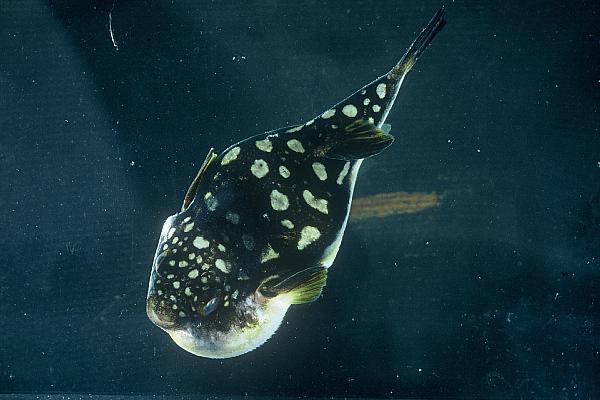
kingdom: Animalia
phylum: Chordata
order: Tetraodontiformes
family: Tetraodontidae
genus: Amblyrhynchotes
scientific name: Amblyrhynchotes honckenii
